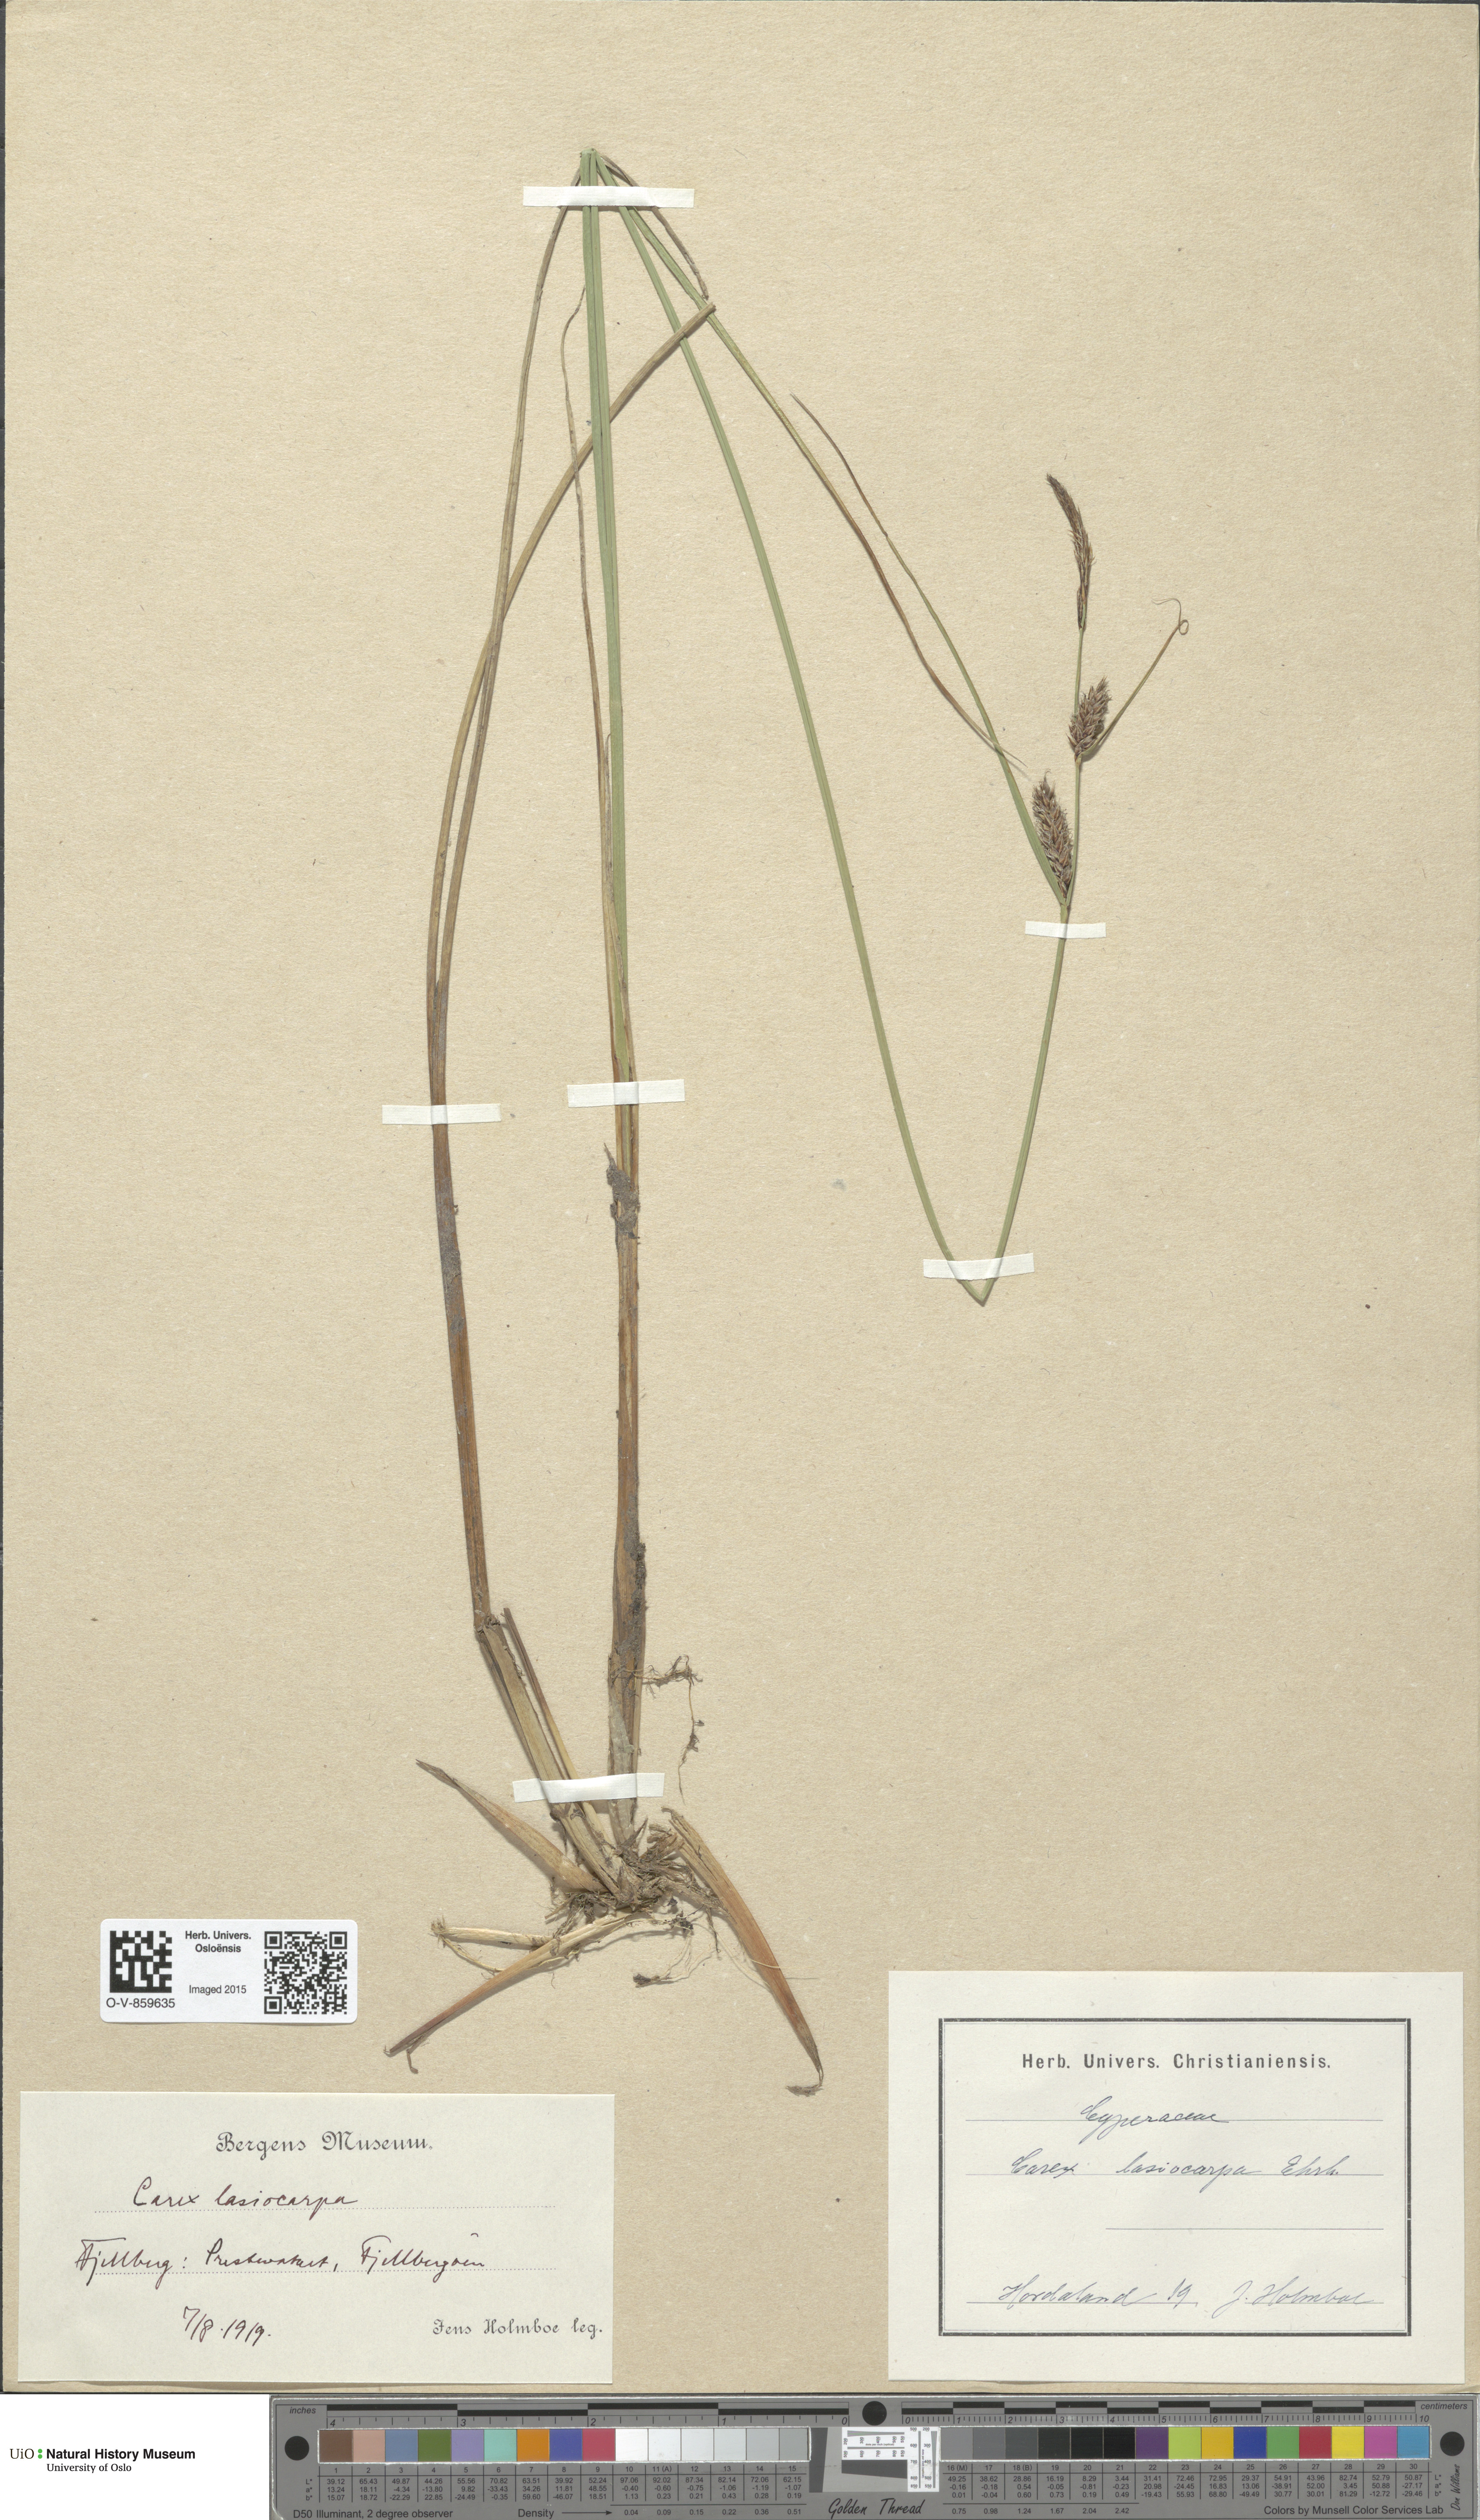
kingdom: Plantae
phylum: Tracheophyta
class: Liliopsida
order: Poales
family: Cyperaceae
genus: Carex
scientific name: Carex lasiocarpa
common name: Slender sedge
